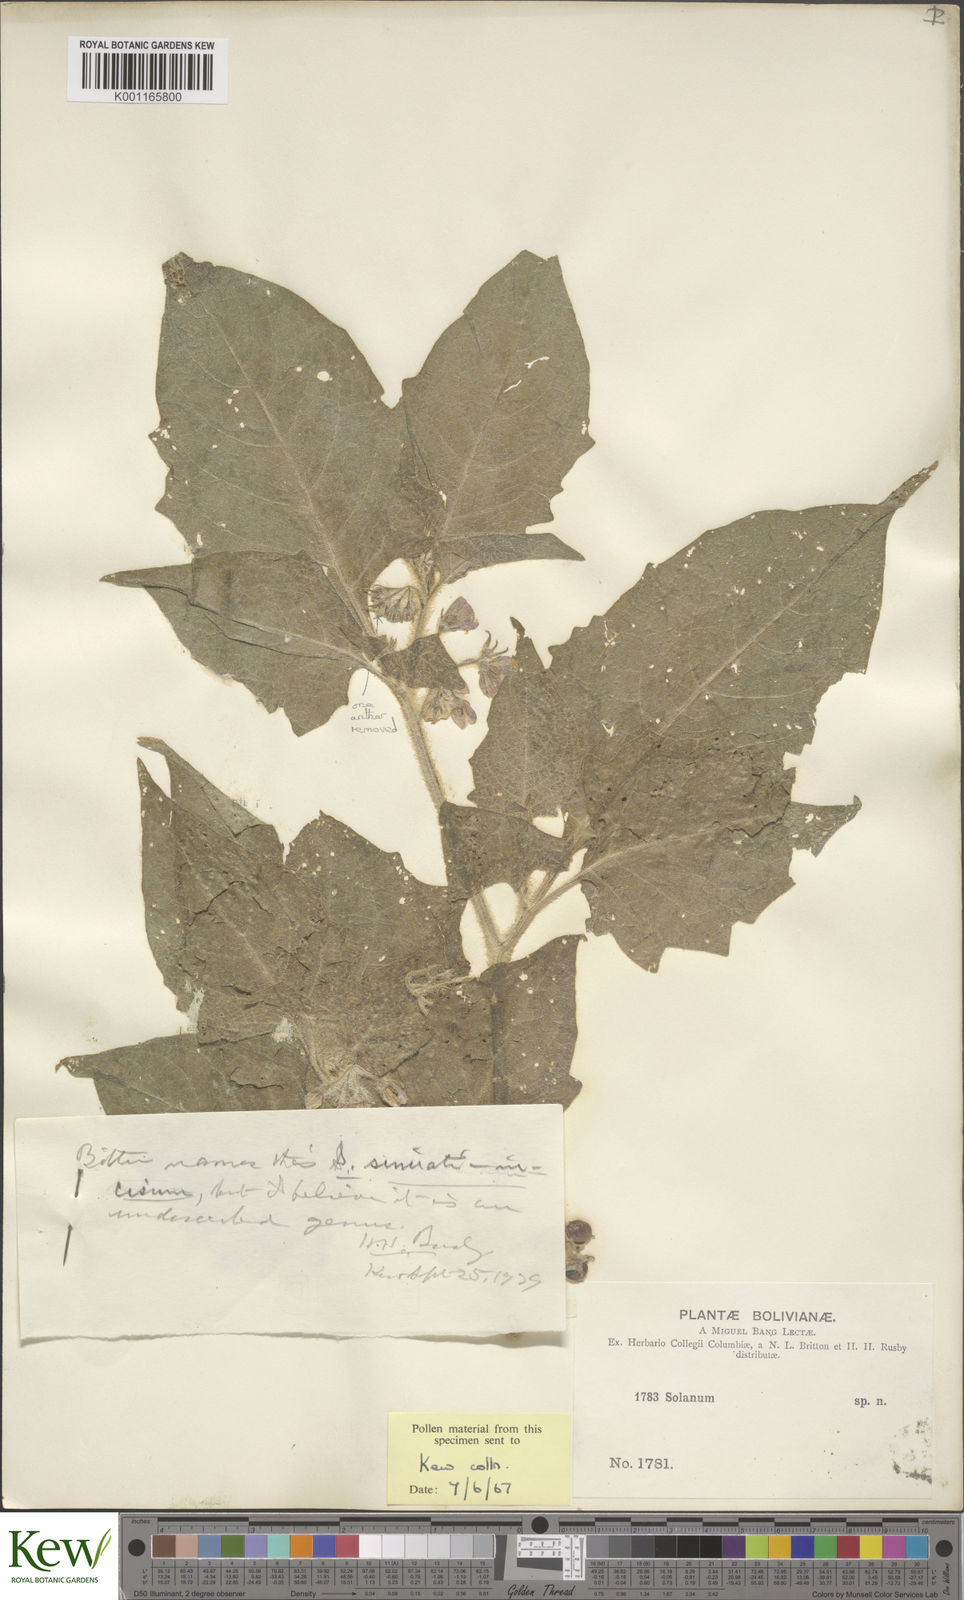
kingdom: Plantae
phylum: Tracheophyta
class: Magnoliopsida
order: Solanales
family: Solanaceae
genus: Solanum
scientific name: Solanum sinuatiexcisum
